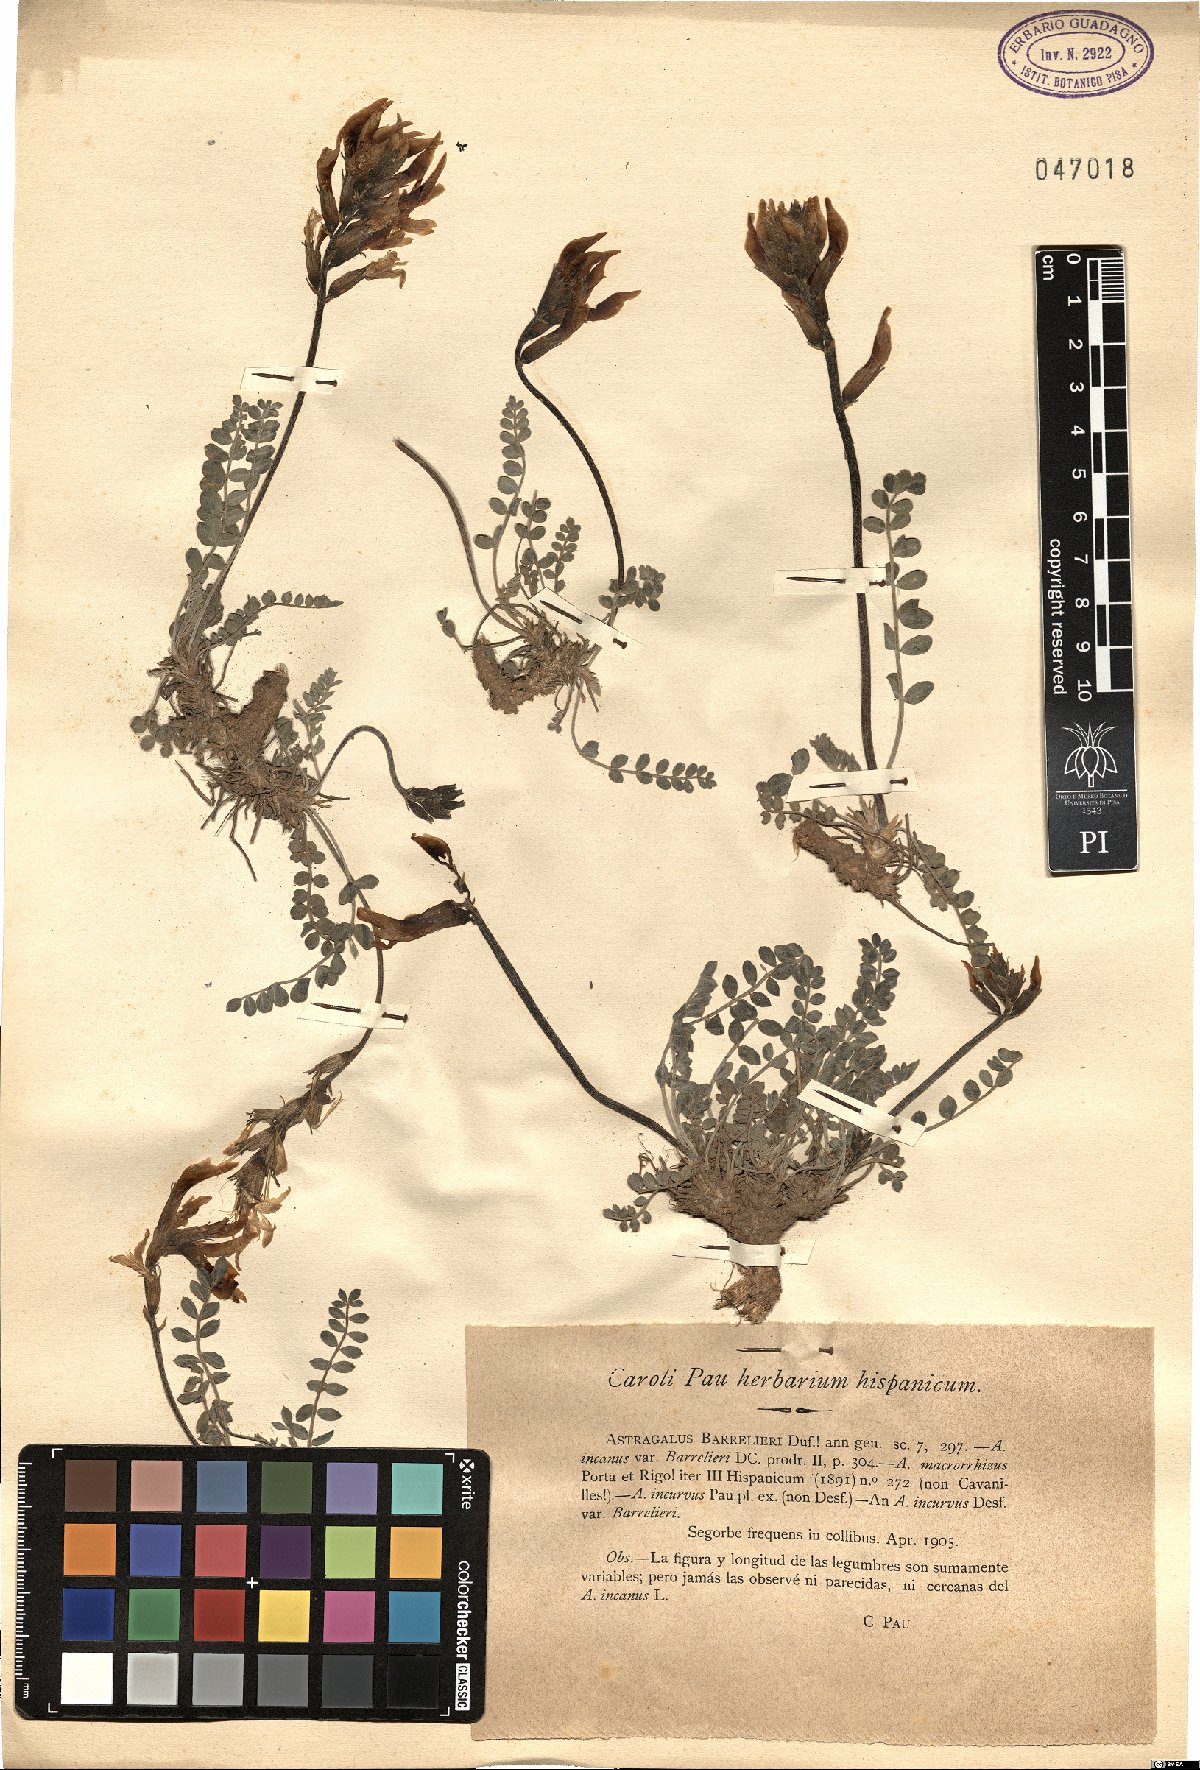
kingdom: Plantae
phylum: Tracheophyta
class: Magnoliopsida
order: Fabales
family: Fabaceae
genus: Astragalus
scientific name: Astragalus incanus
